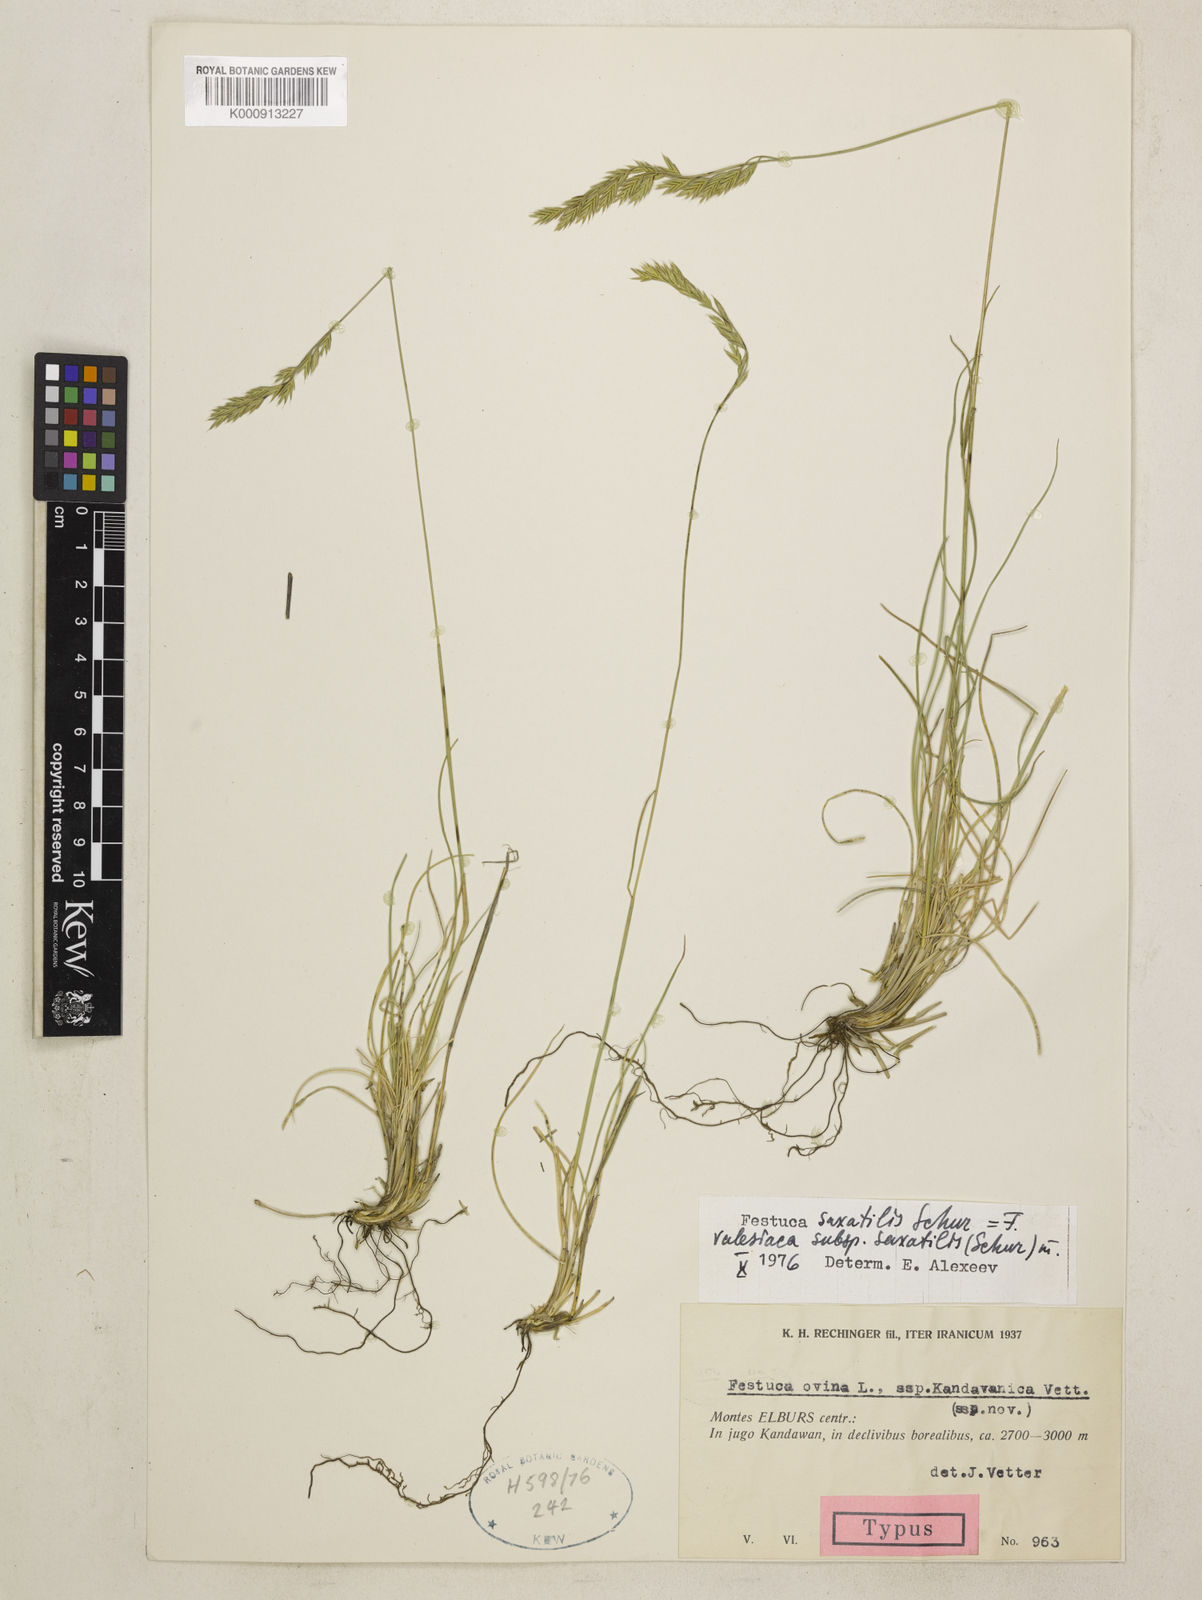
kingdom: Plantae
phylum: Tracheophyta
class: Liliopsida
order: Poales
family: Poaceae
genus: Festuca
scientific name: Festuca valesiaca
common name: Volga fescue
